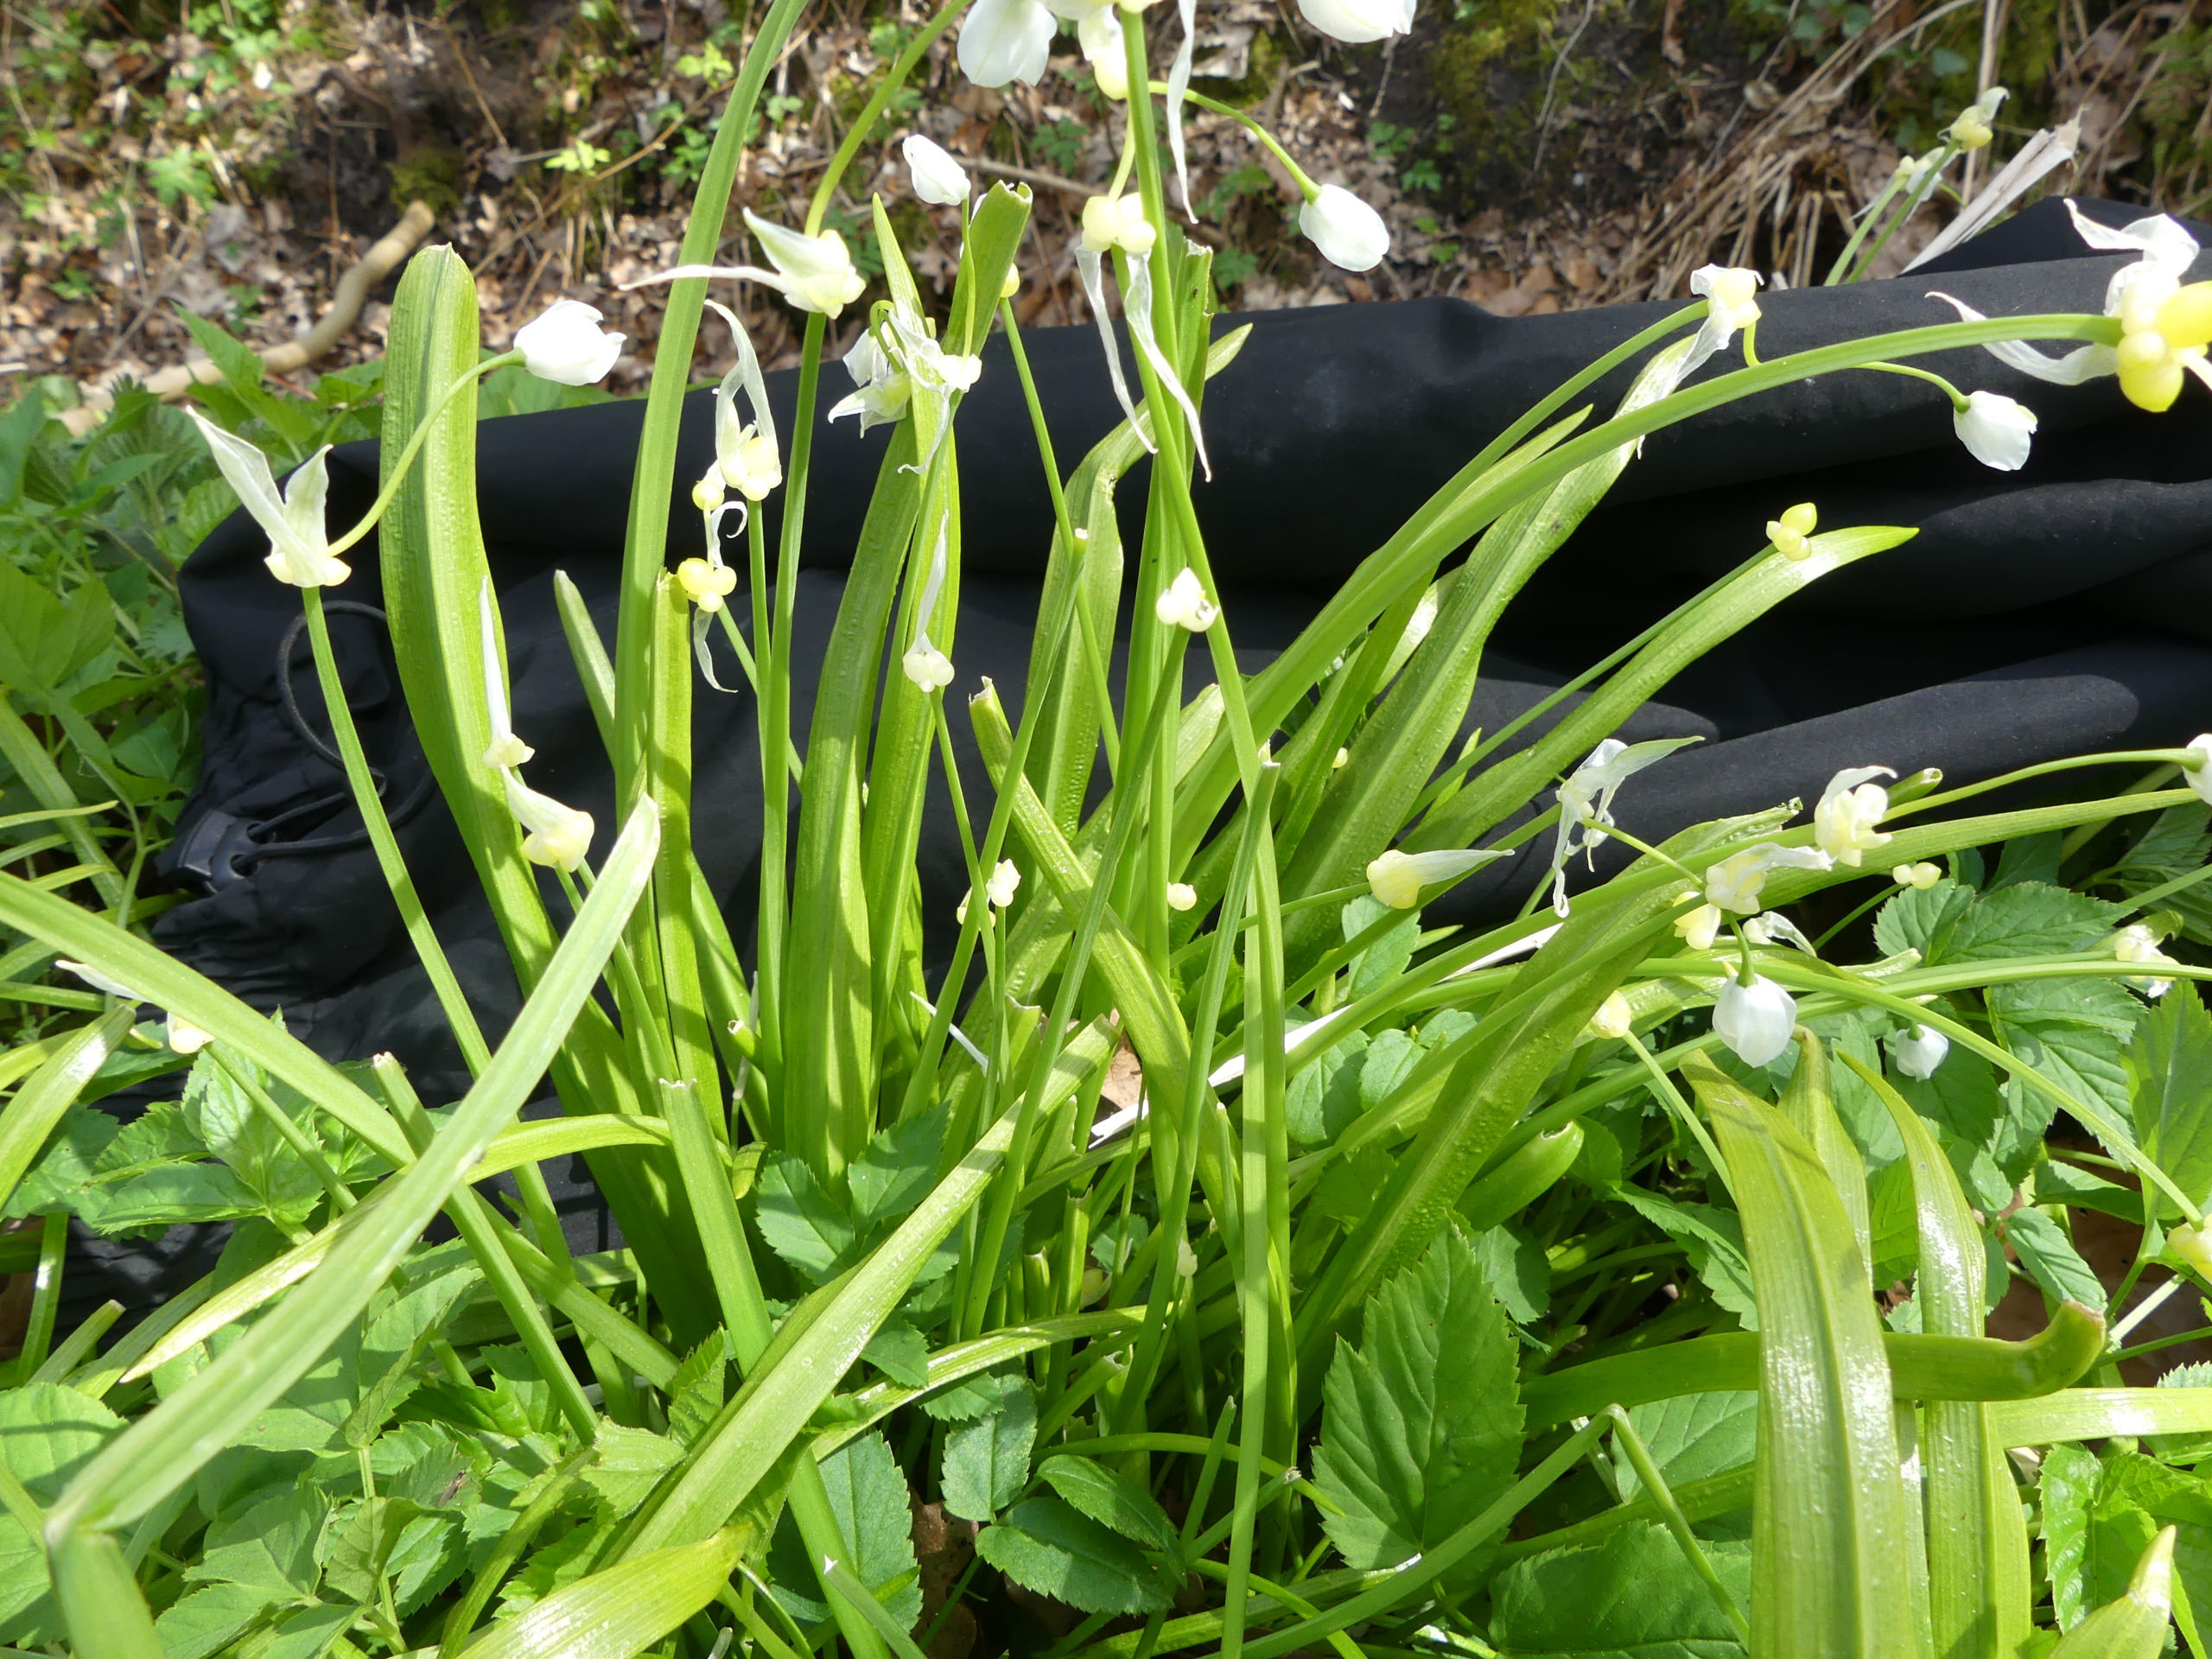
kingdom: Plantae
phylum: Tracheophyta
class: Liliopsida
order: Asparagales
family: Amaryllidaceae
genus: Allium
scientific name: Allium paradoxum
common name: Spøjs løg
